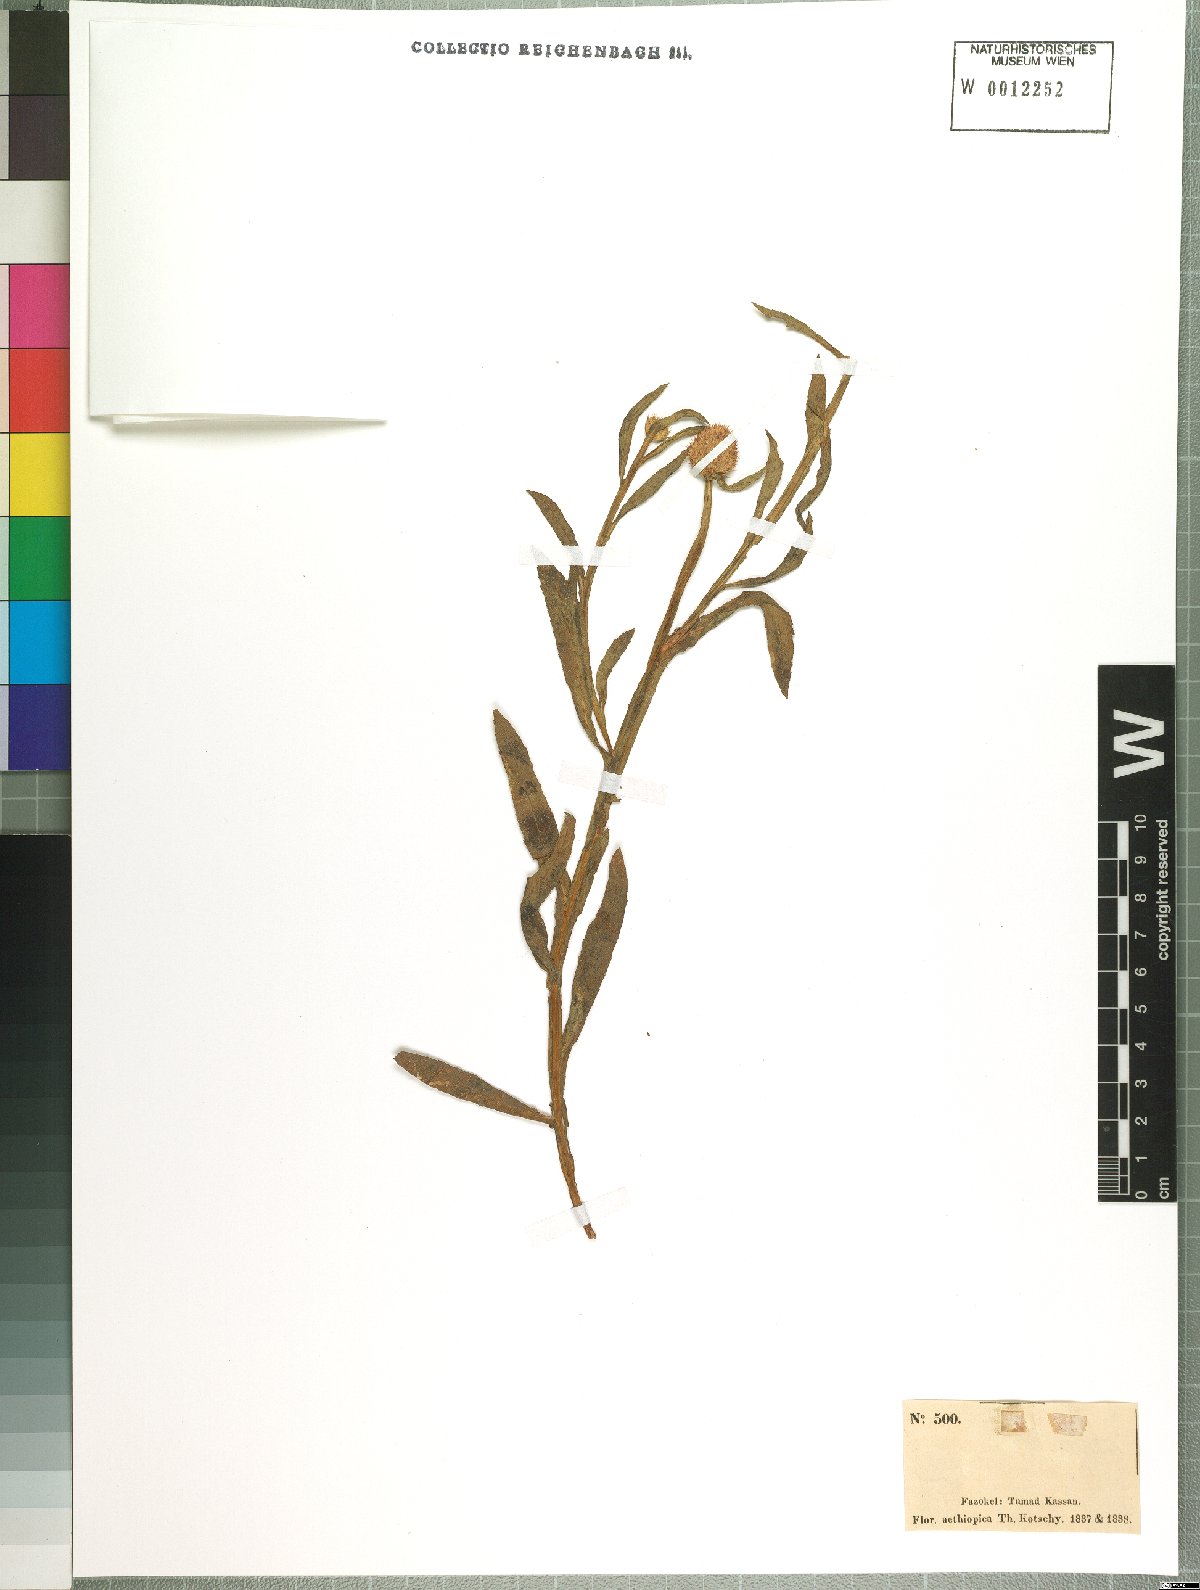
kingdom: Plantae
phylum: Tracheophyta
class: Magnoliopsida
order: Asterales
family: Asteraceae
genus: Sphaeranthus
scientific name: Sphaeranthus suaveolens
